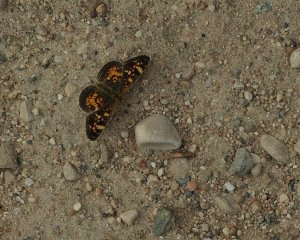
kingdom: Animalia
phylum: Arthropoda
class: Insecta
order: Lepidoptera
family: Nymphalidae
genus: Phyciodes
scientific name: Phyciodes batesii
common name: Tawny Crescent
